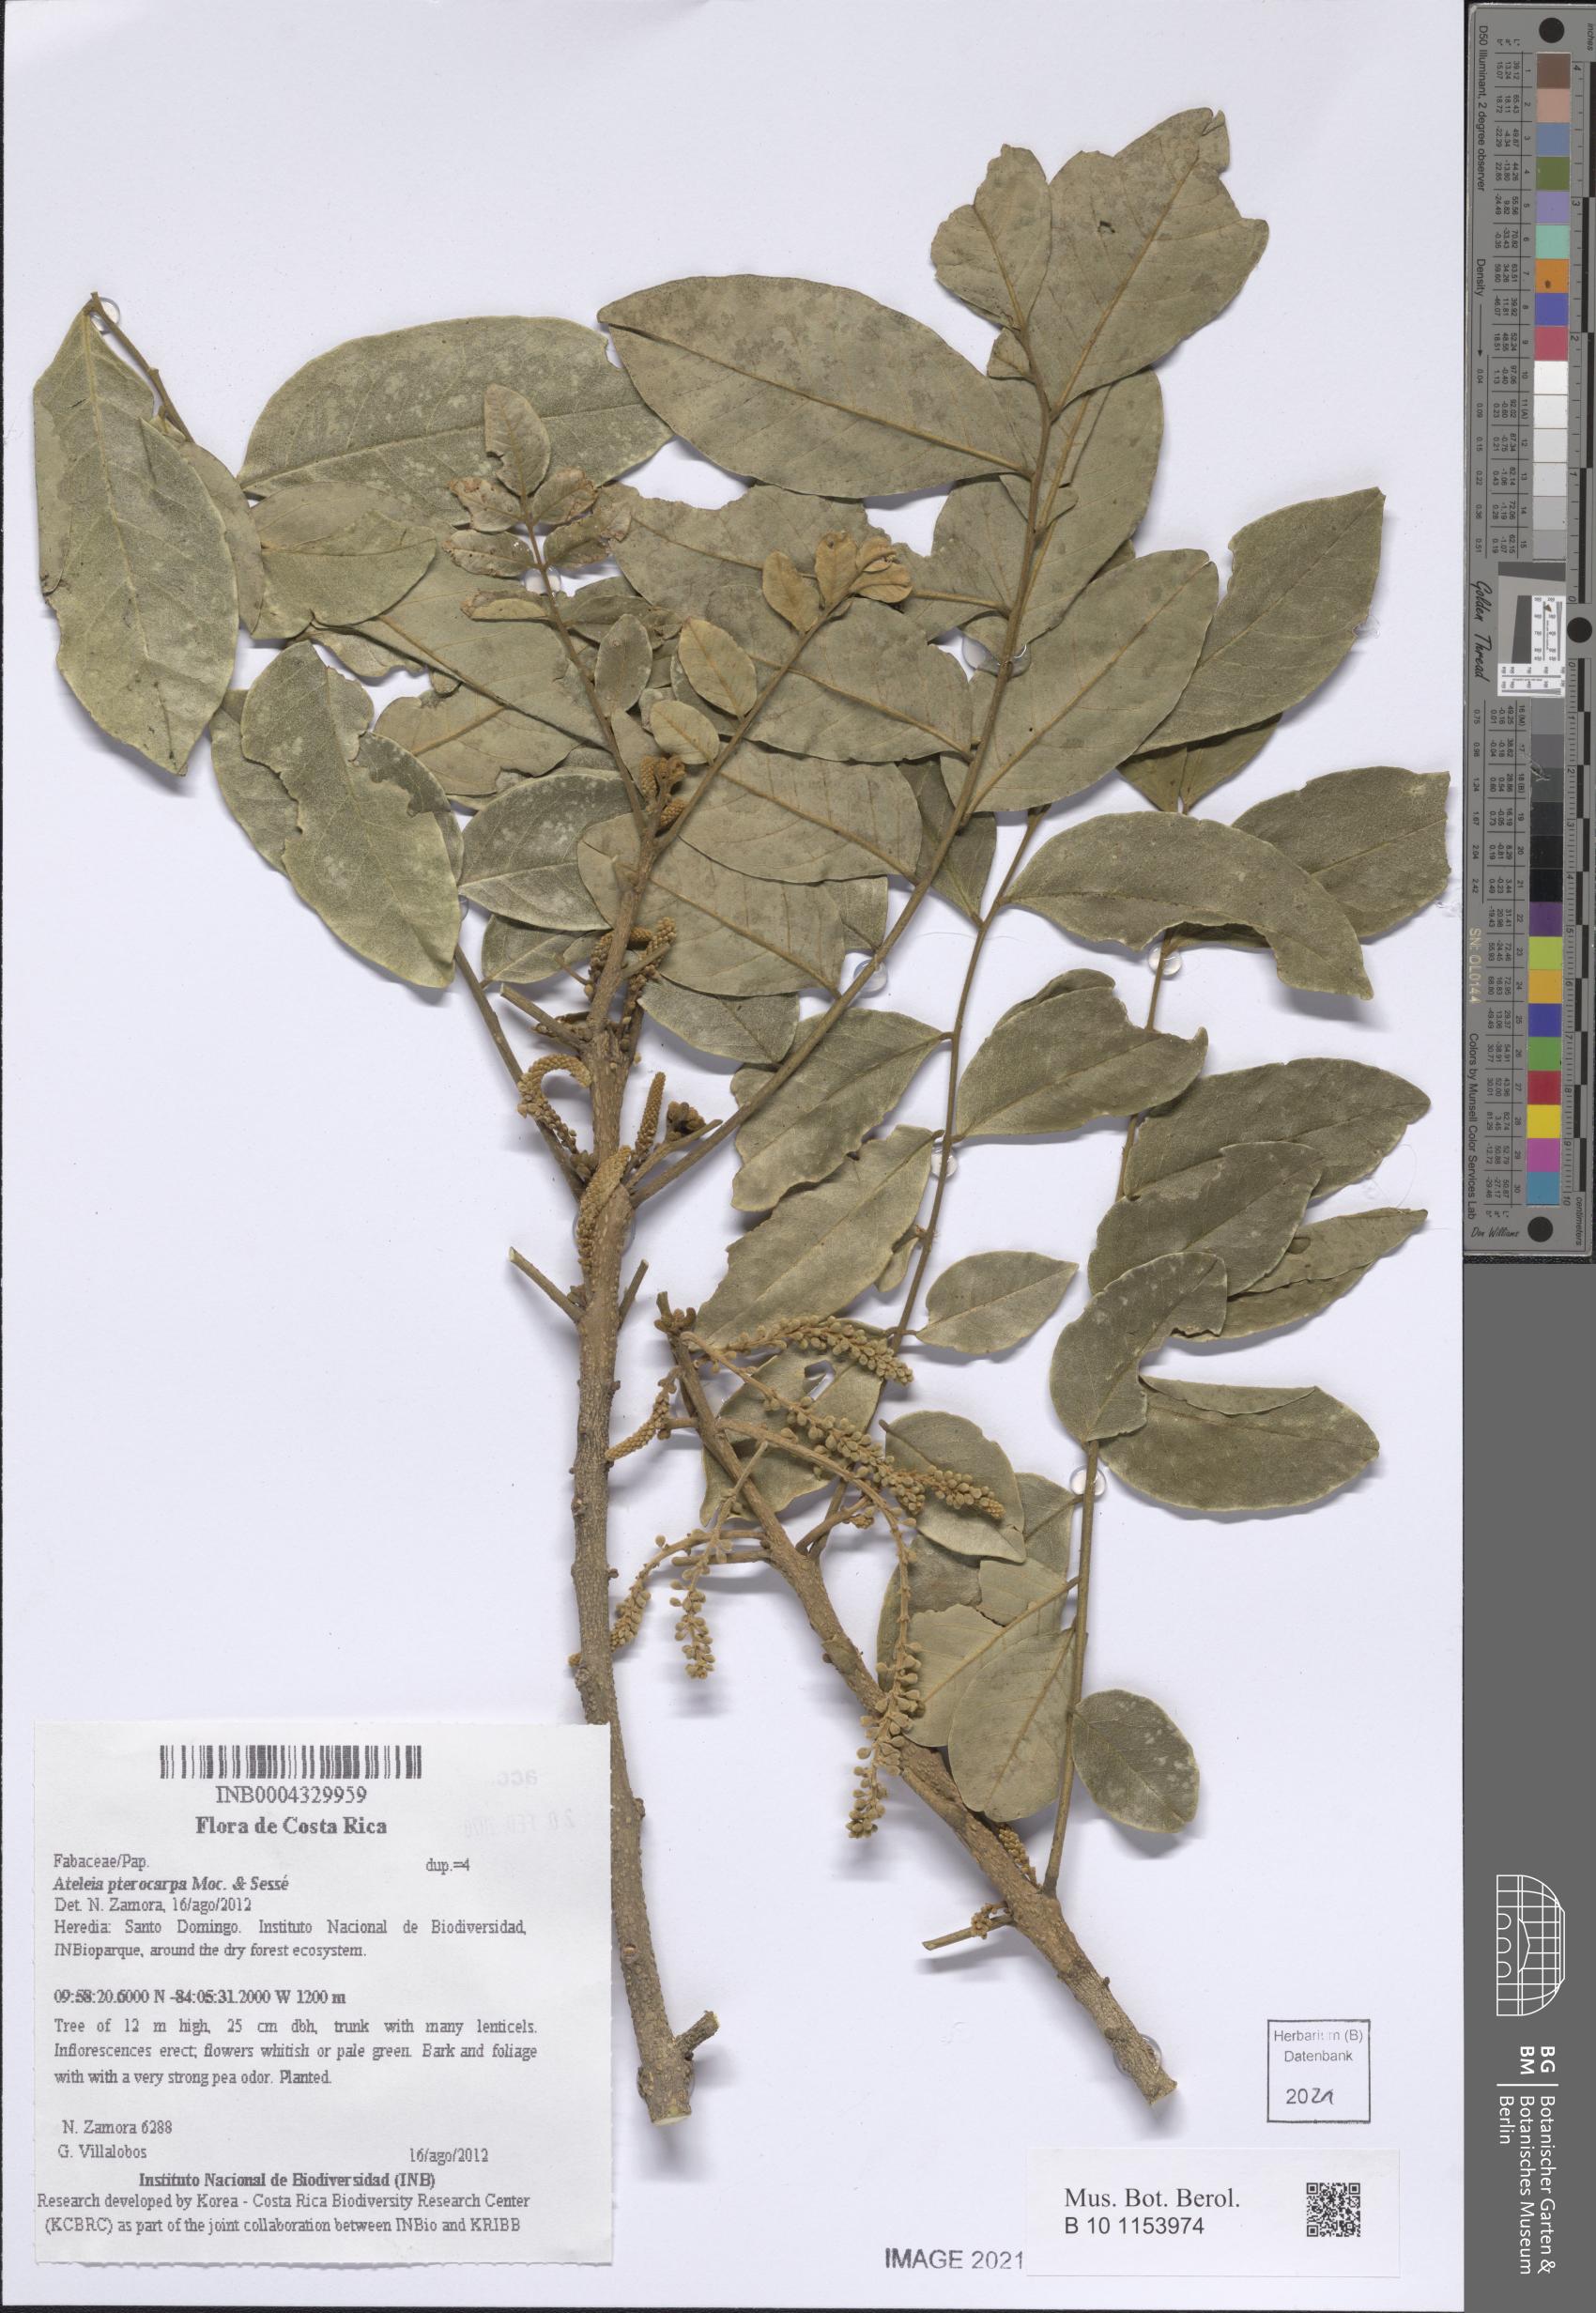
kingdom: Plantae
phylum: Tracheophyta
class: Magnoliopsida
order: Fabales
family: Fabaceae
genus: Ateleia
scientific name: Ateleia pterocarpa
